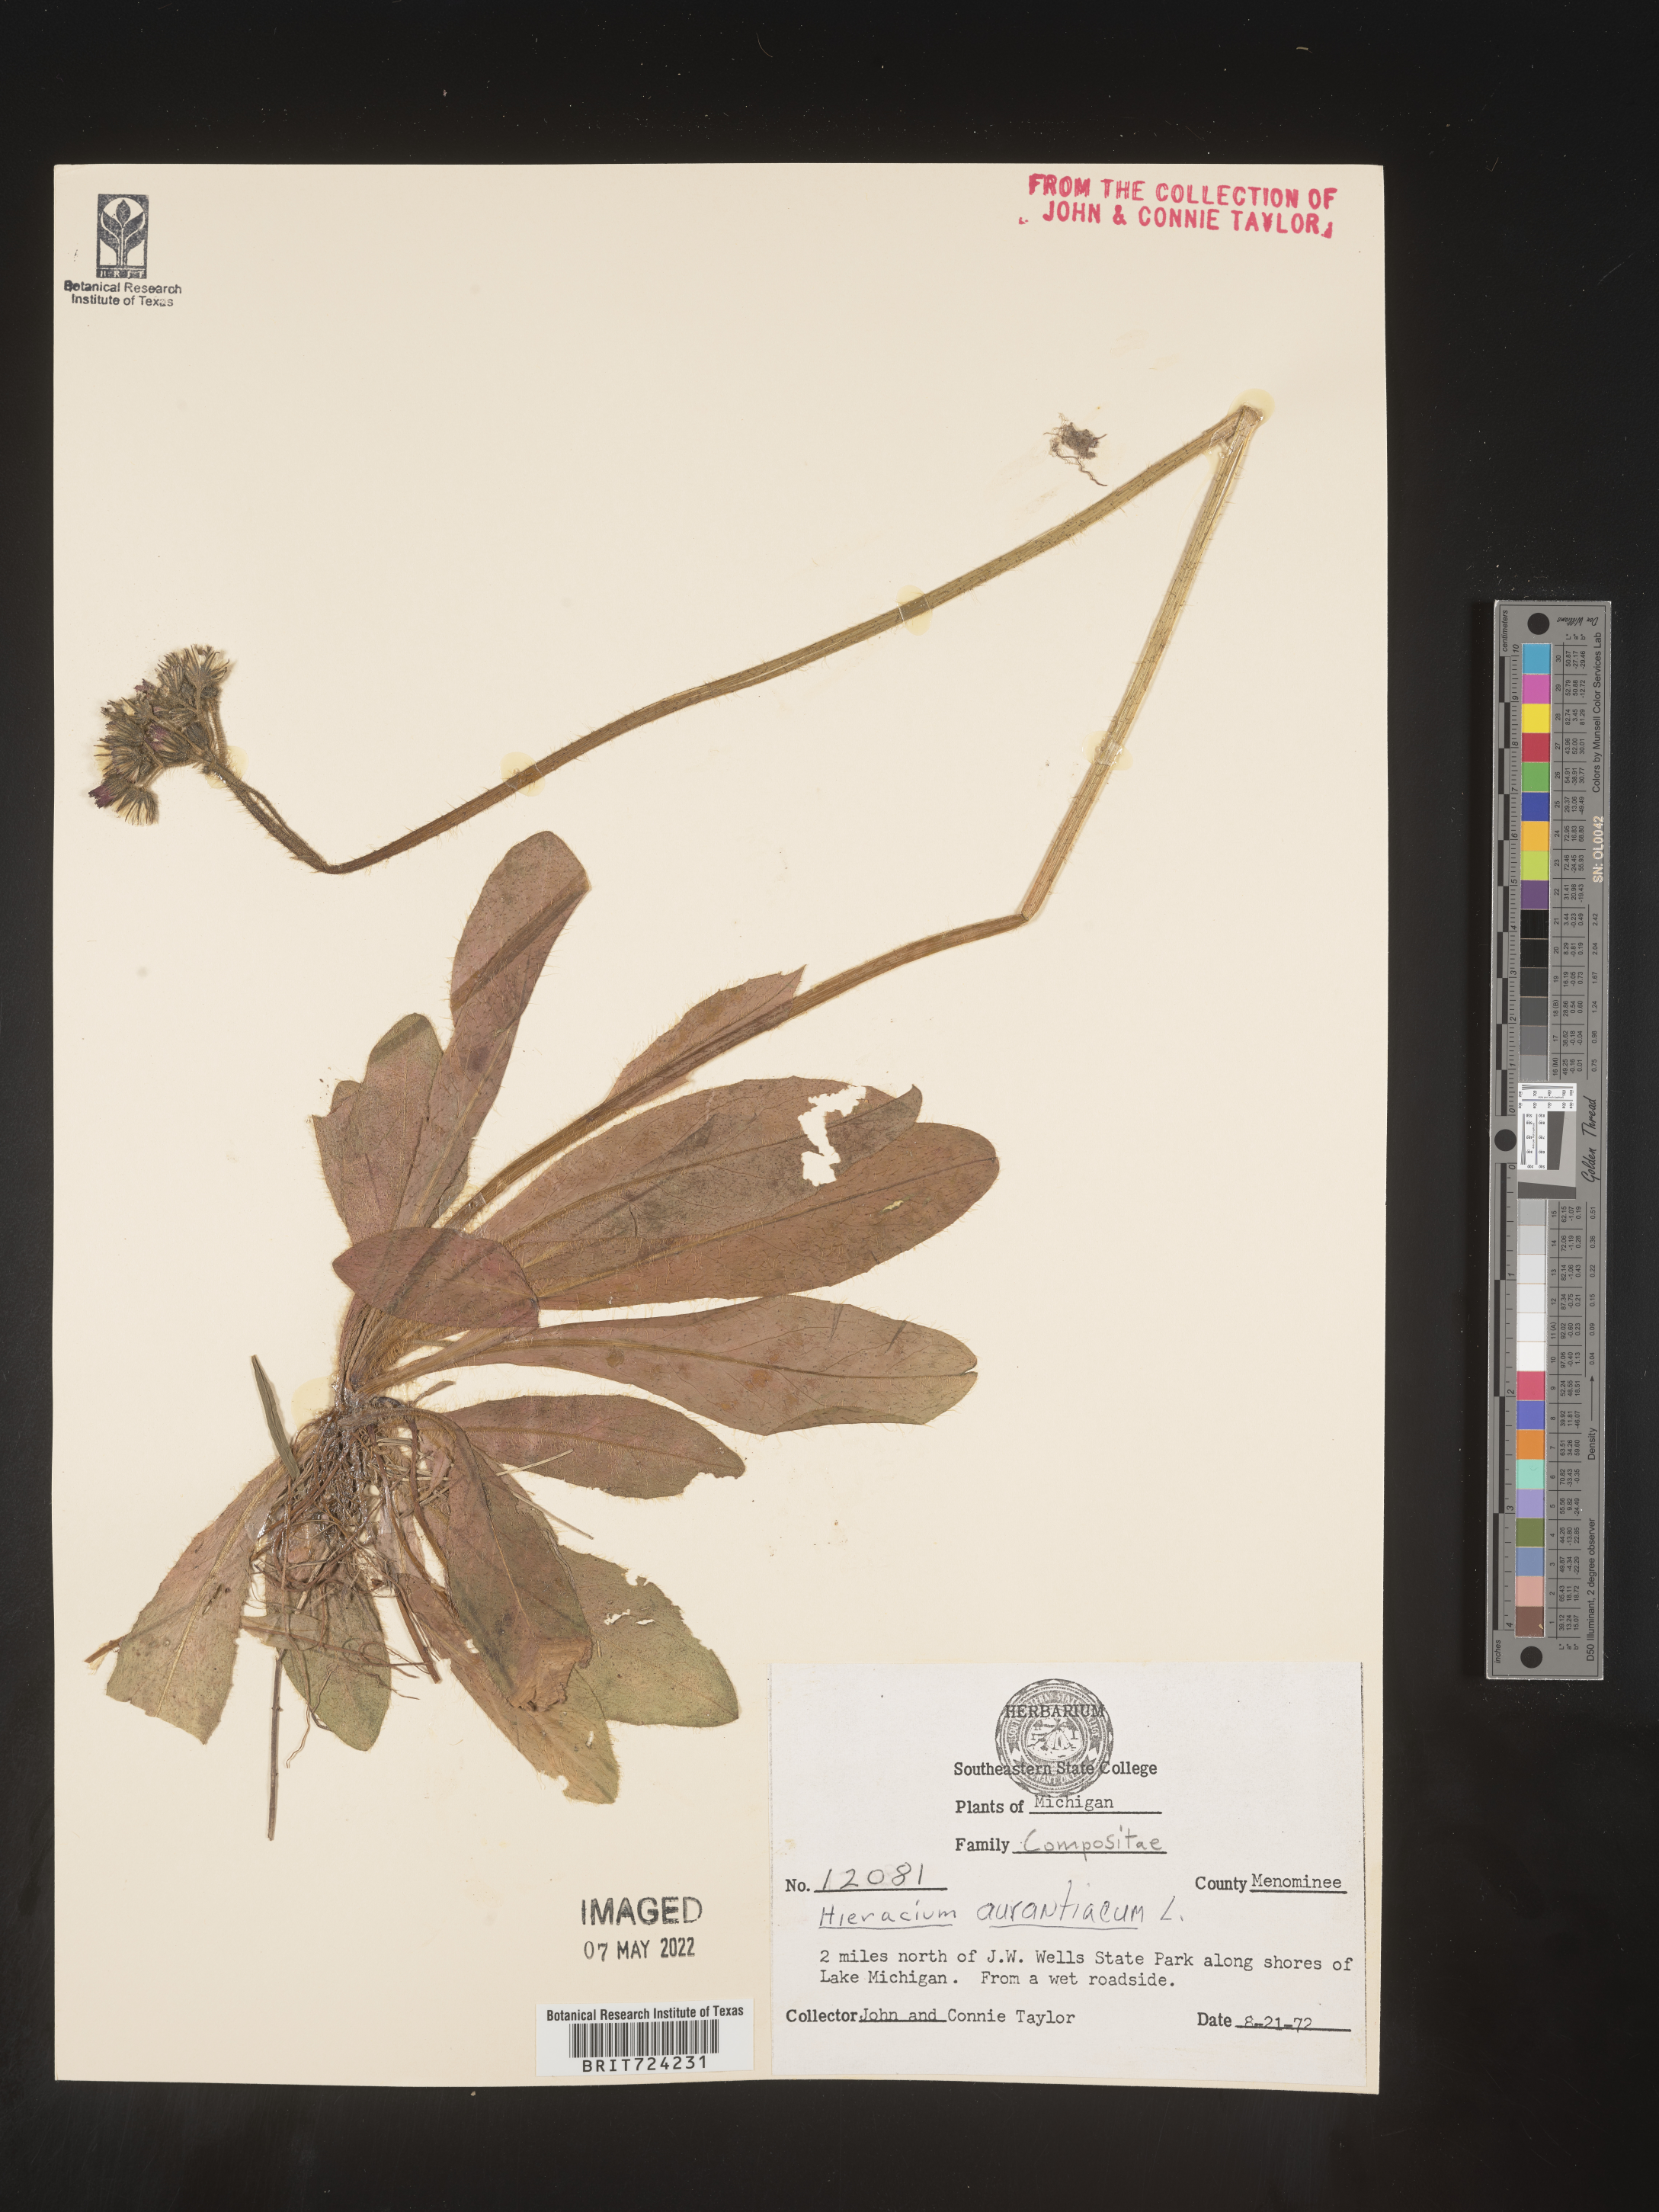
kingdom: Plantae
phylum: Tracheophyta
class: Magnoliopsida
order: Asterales
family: Asteraceae
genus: Pilosella
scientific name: Pilosella aurantiaca
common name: Fox-and-cubs
